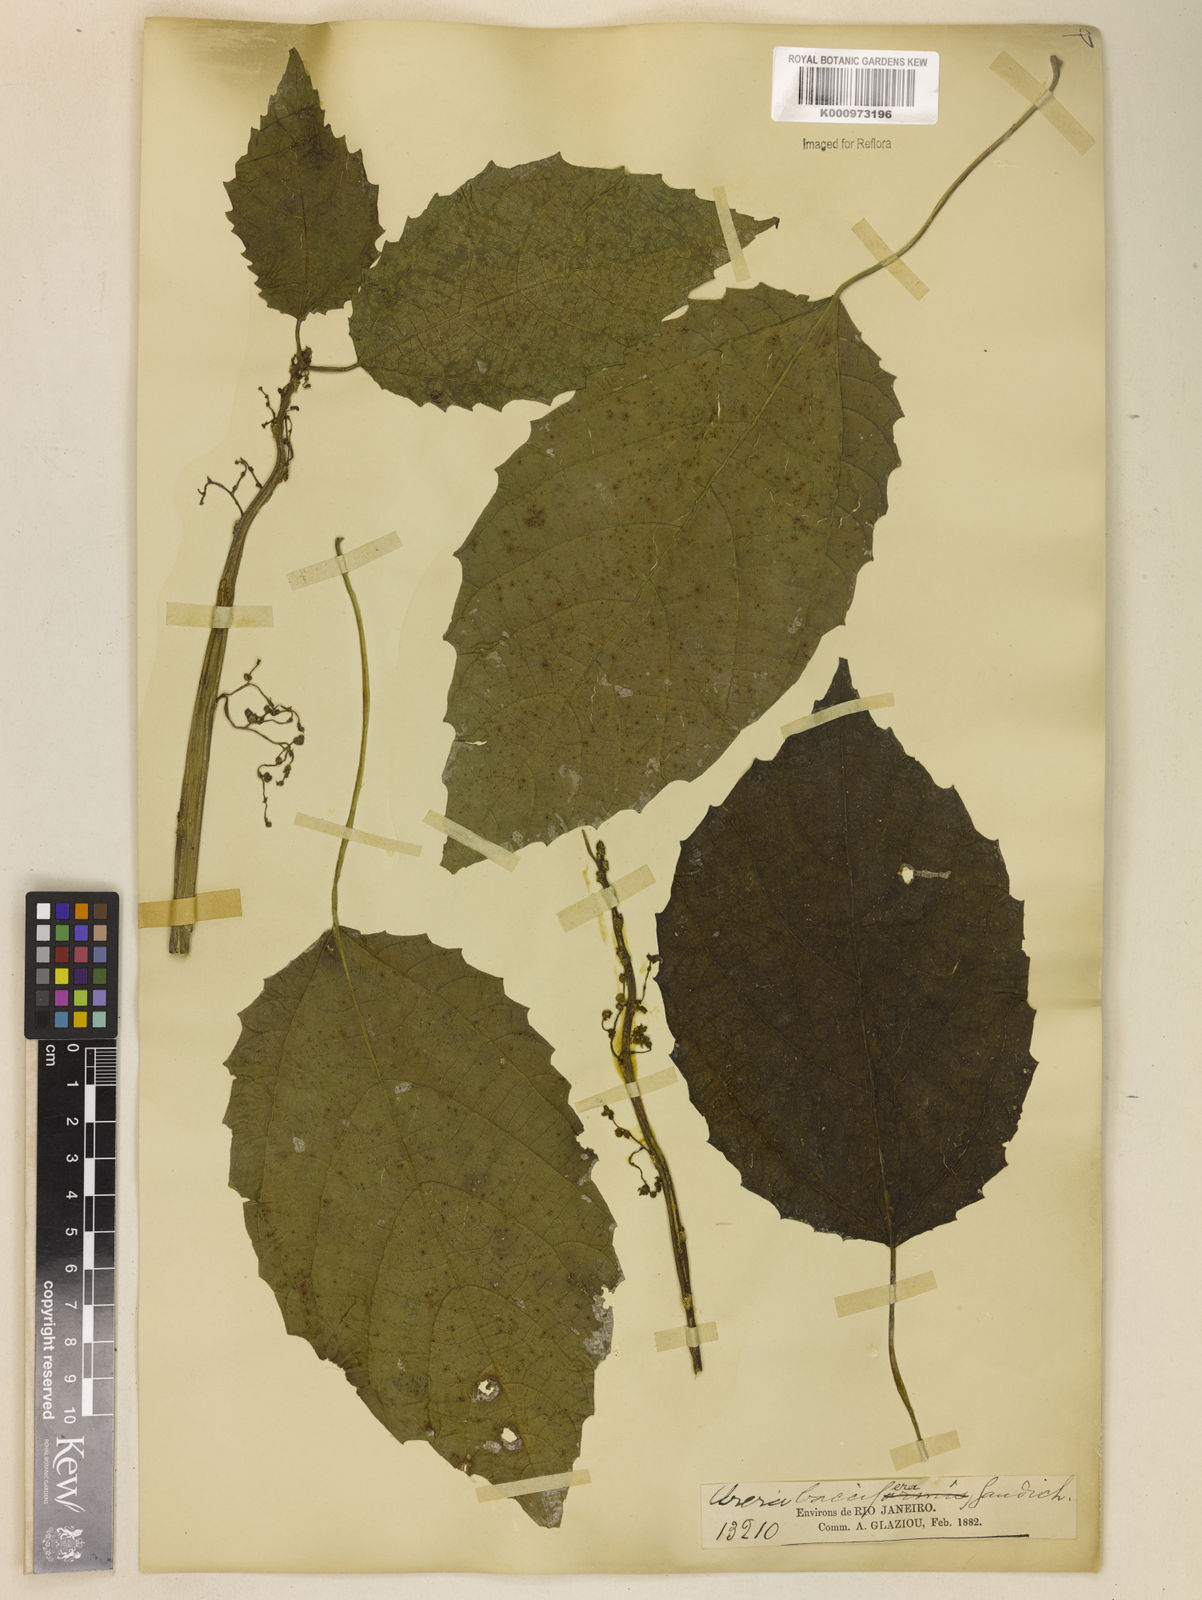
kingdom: Plantae
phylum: Tracheophyta
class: Magnoliopsida
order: Rosales
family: Urticaceae
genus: Urera
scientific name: Urera baccifera
